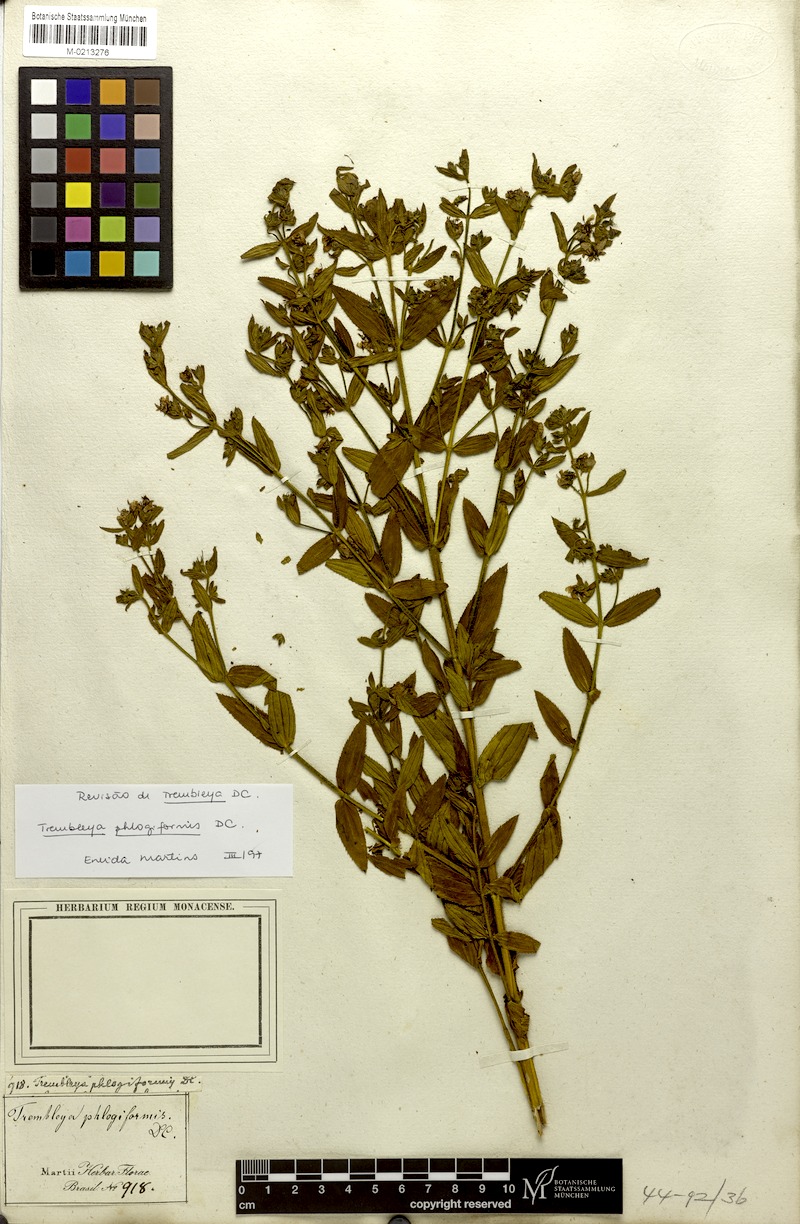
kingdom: Plantae
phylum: Tracheophyta
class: Magnoliopsida
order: Myrtales
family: Melastomataceae
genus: Microlicia
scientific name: Microlicia phlogiformis
